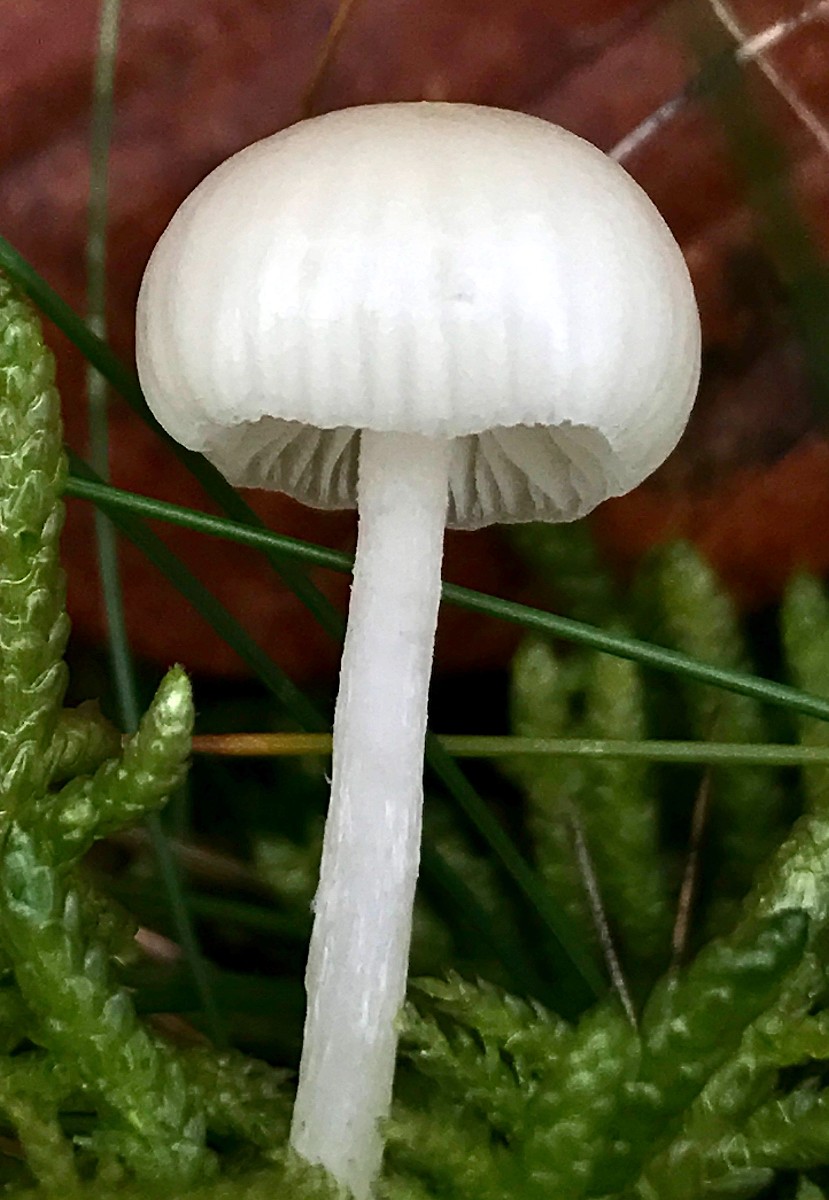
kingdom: Fungi
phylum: Basidiomycota
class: Agaricomycetes
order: Agaricales
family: Mycenaceae
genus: Hemimycena
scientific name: Hemimycena
